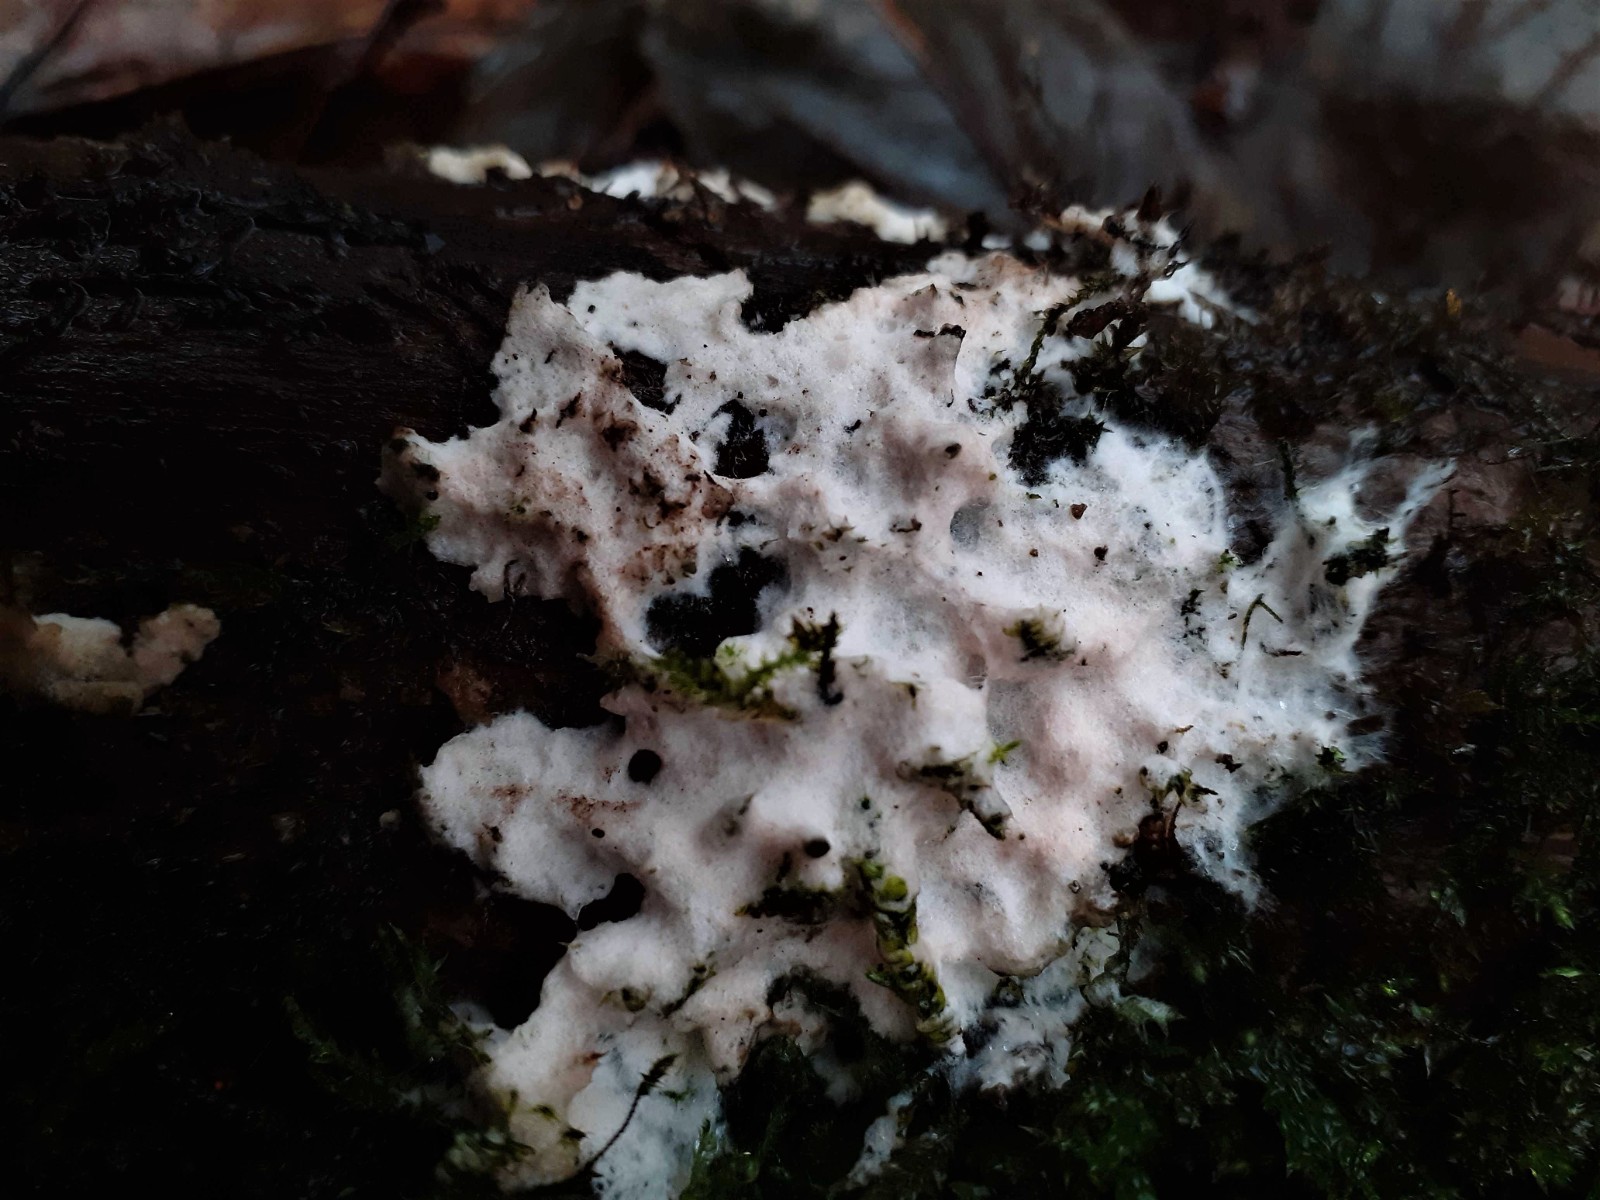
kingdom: Fungi
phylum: Basidiomycota
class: Agaricomycetes
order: Corticiales
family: Corticiaceae
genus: Erythricium
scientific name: Erythricium laetum
